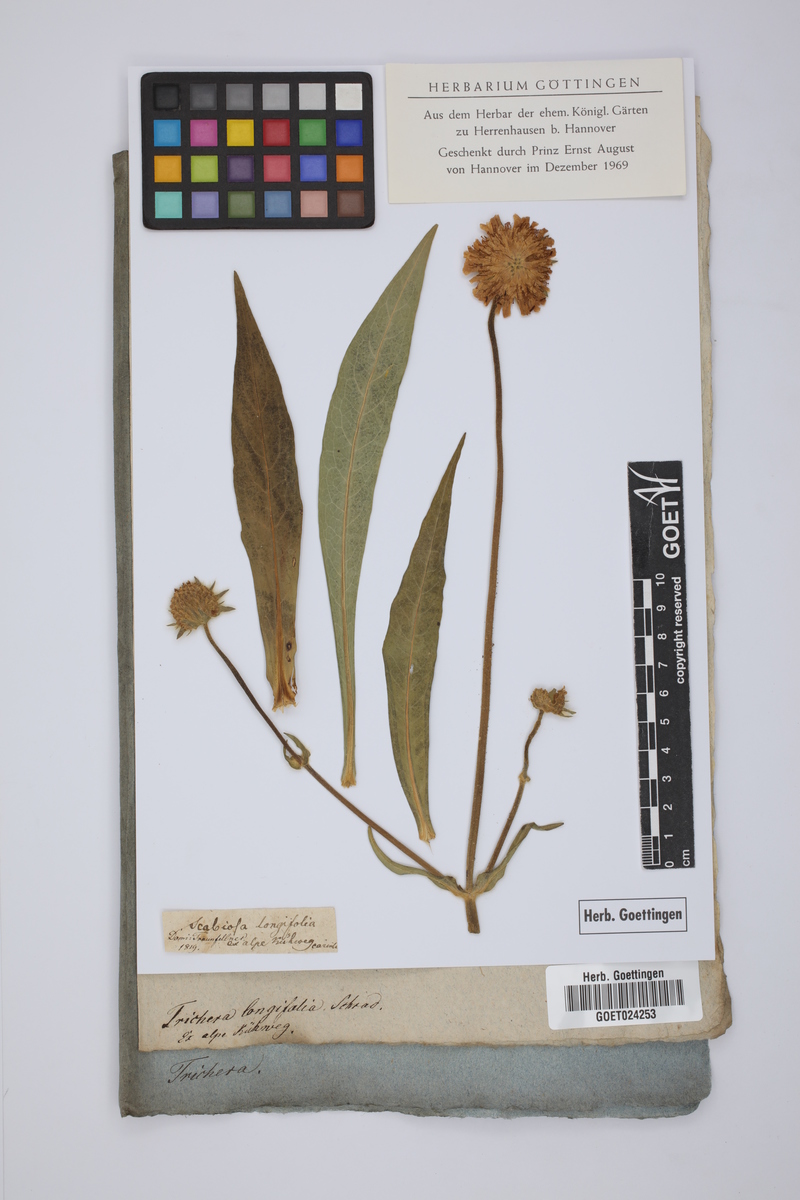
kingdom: Plantae
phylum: Tracheophyta
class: Magnoliopsida
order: Dipsacales
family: Caprifoliaceae
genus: Knautia
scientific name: Knautia longifolia
